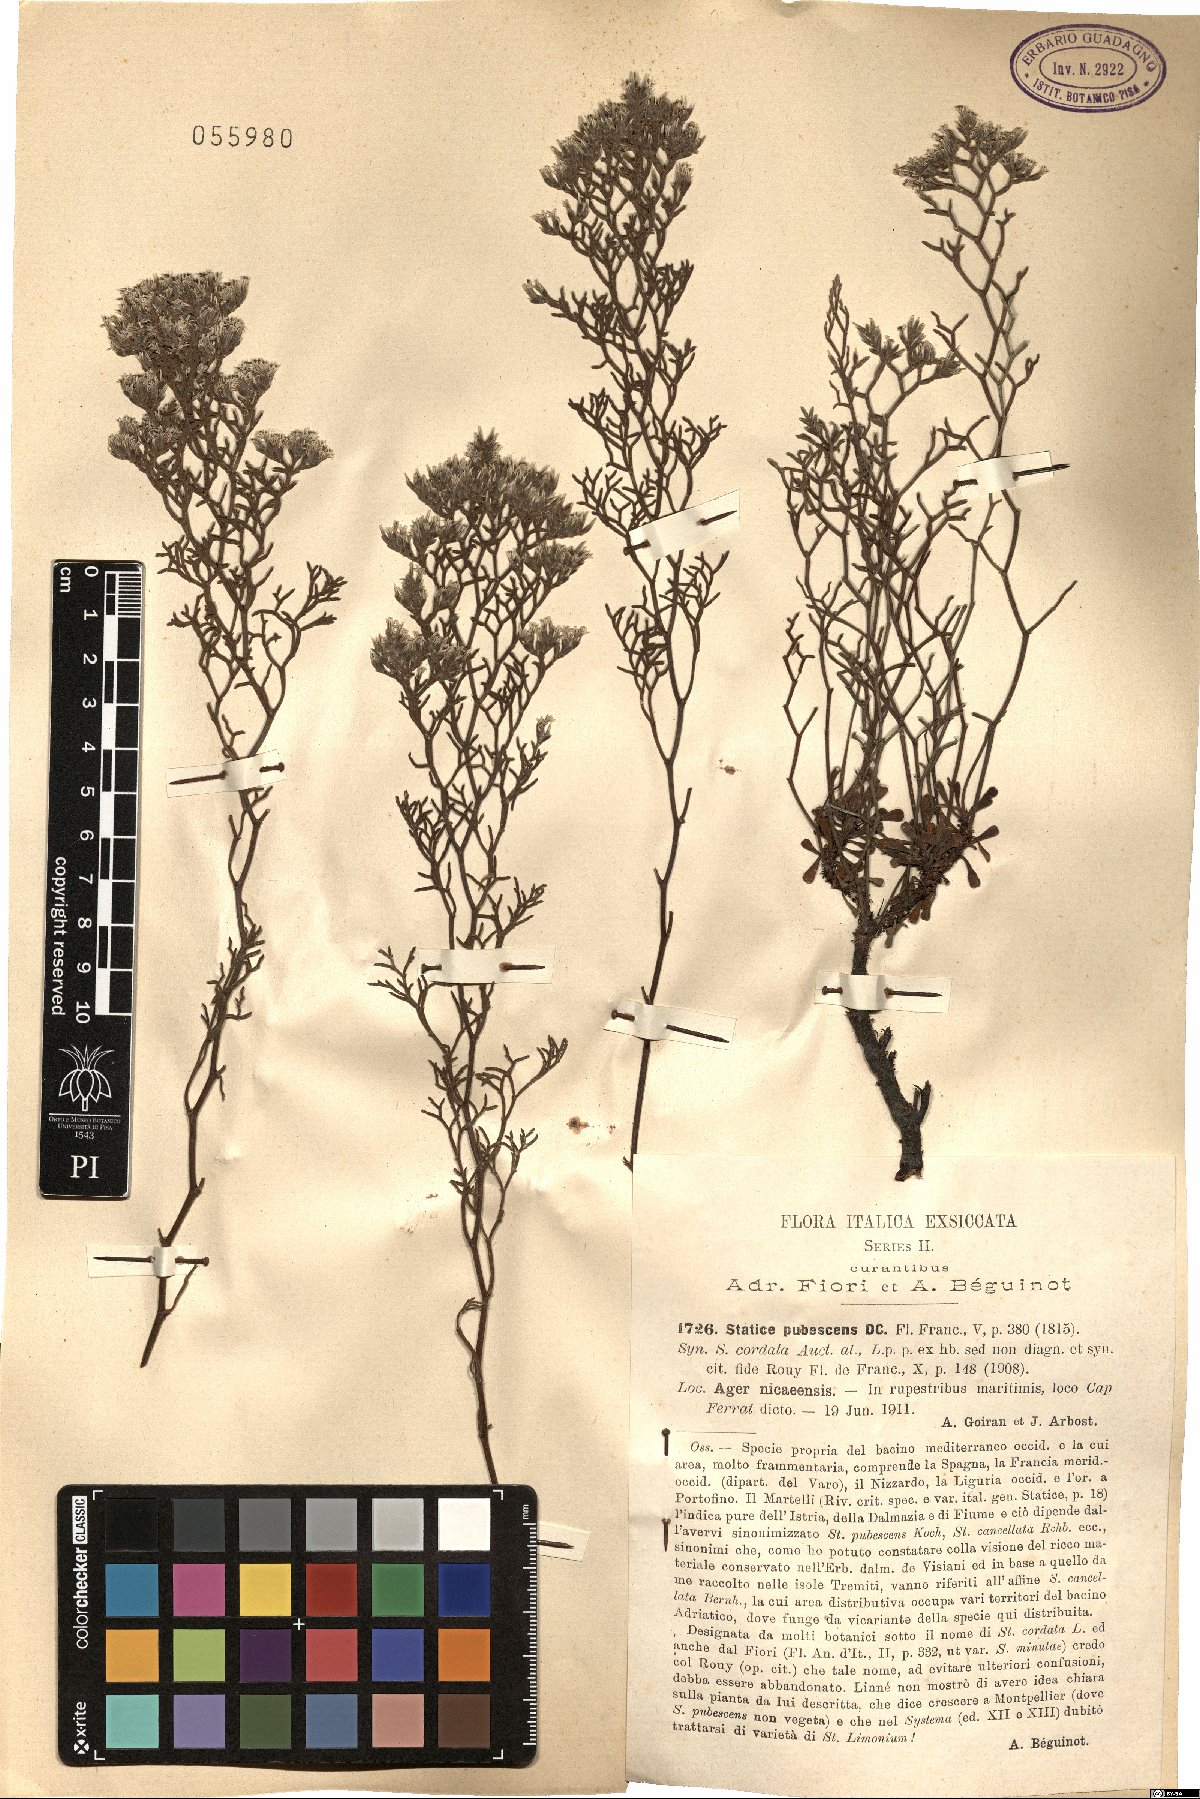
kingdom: Plantae
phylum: Tracheophyta
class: Magnoliopsida
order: Caryophyllales
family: Plumbaginaceae
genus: Limonium
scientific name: Limonium cordatum
